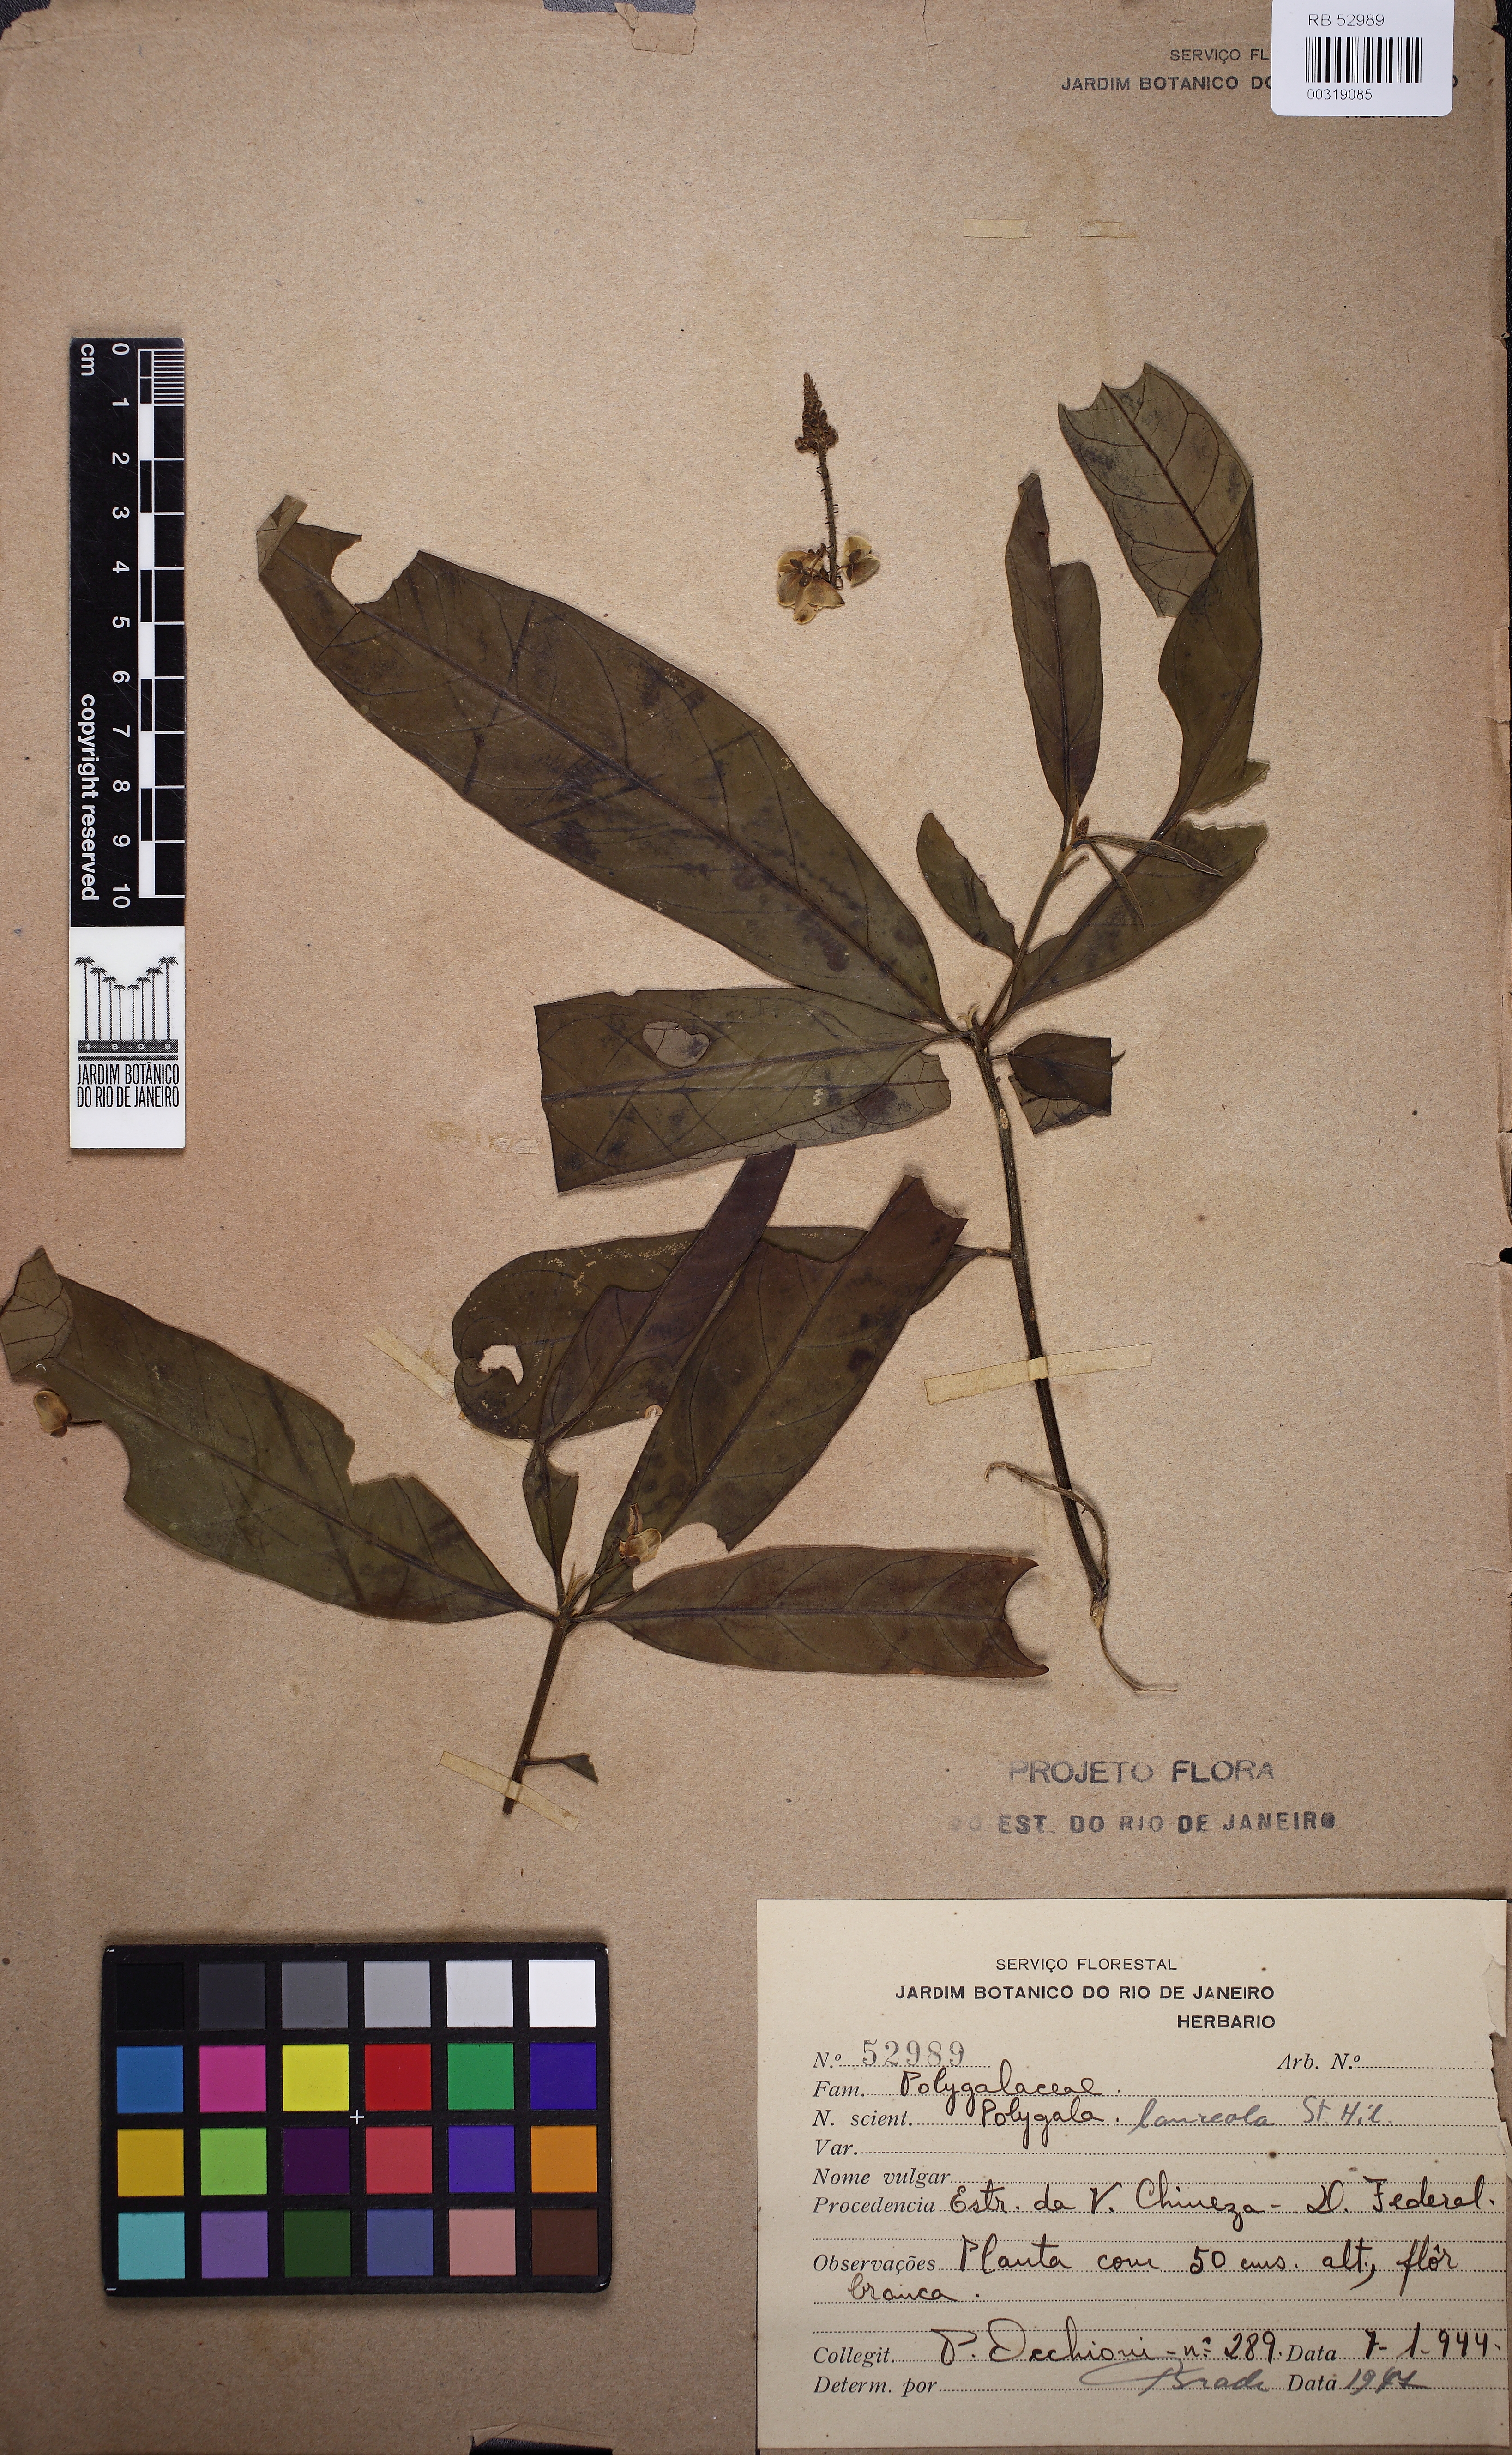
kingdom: Plantae
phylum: Tracheophyta
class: Magnoliopsida
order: Fabales
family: Polygalaceae
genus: Caamembeca
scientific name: Caamembeca salicifolia
